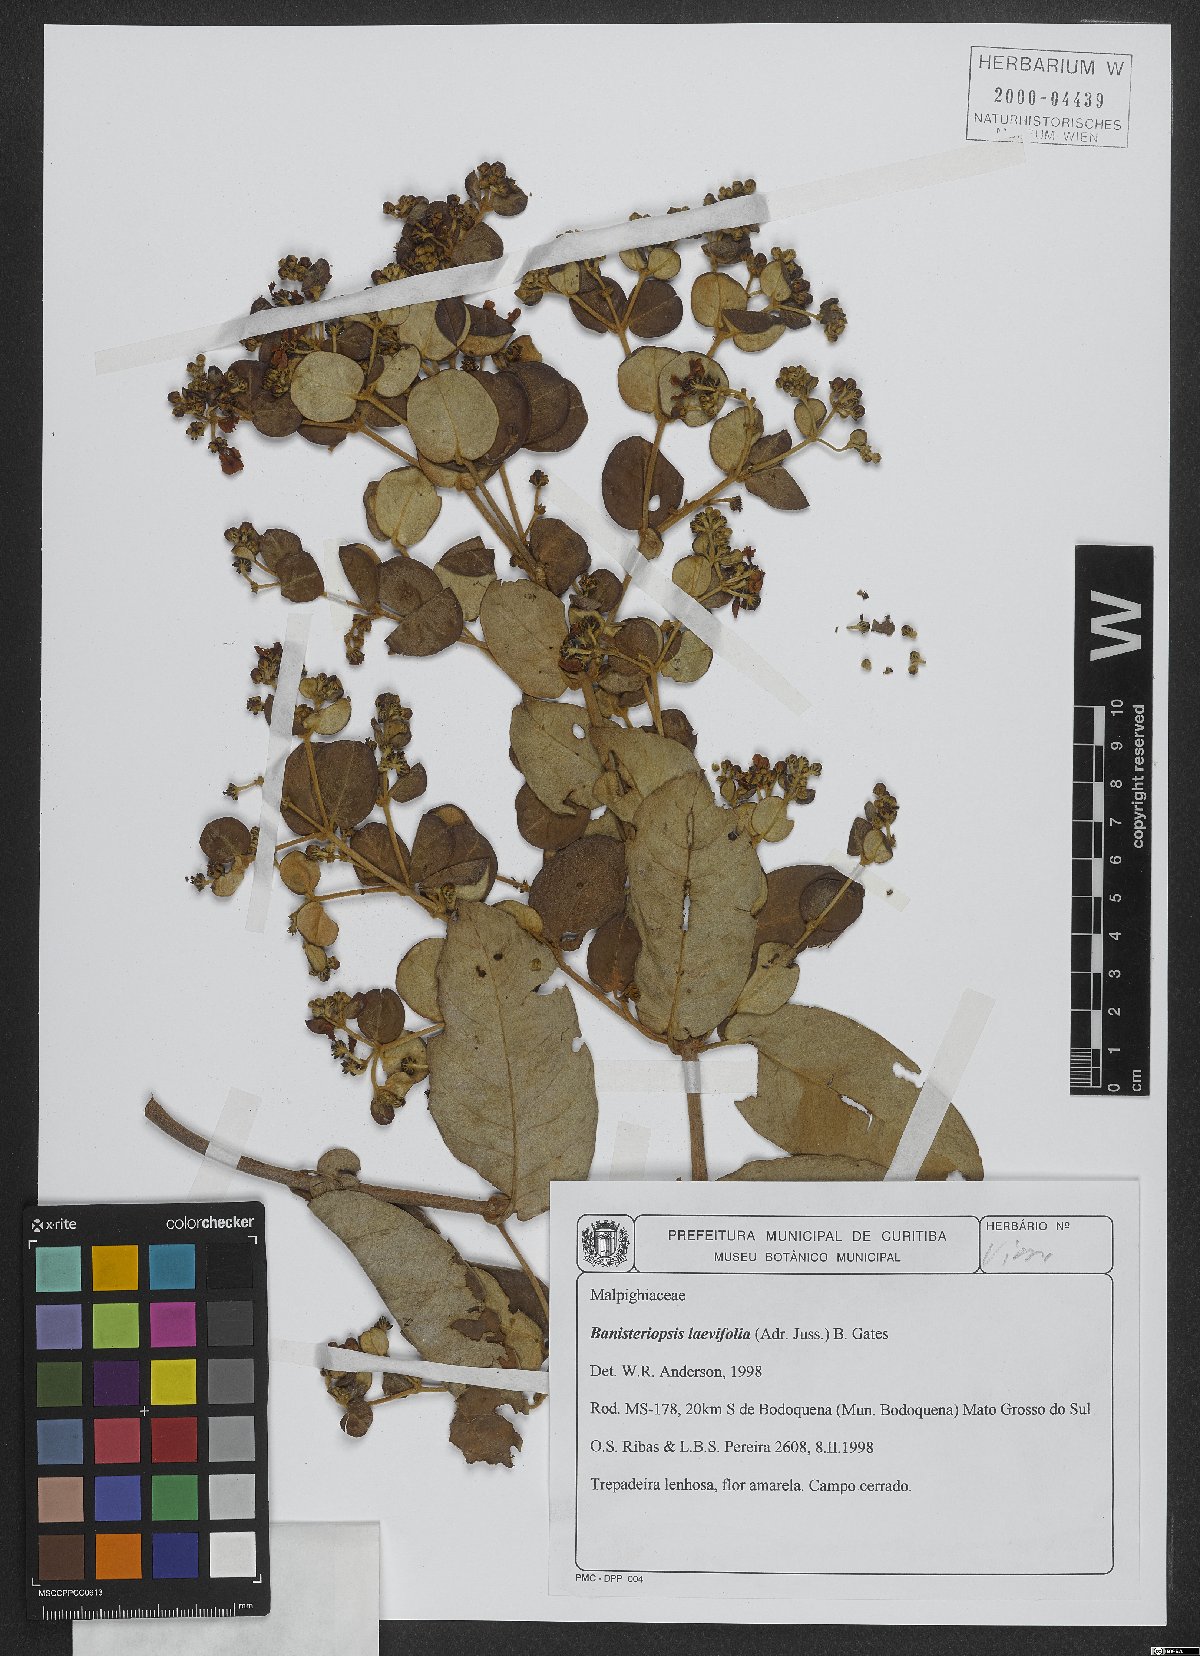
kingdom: Plantae
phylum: Tracheophyta
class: Magnoliopsida
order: Malpighiales
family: Malpighiaceae
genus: Banisteriopsis
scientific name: Banisteriopsis laevifolia
